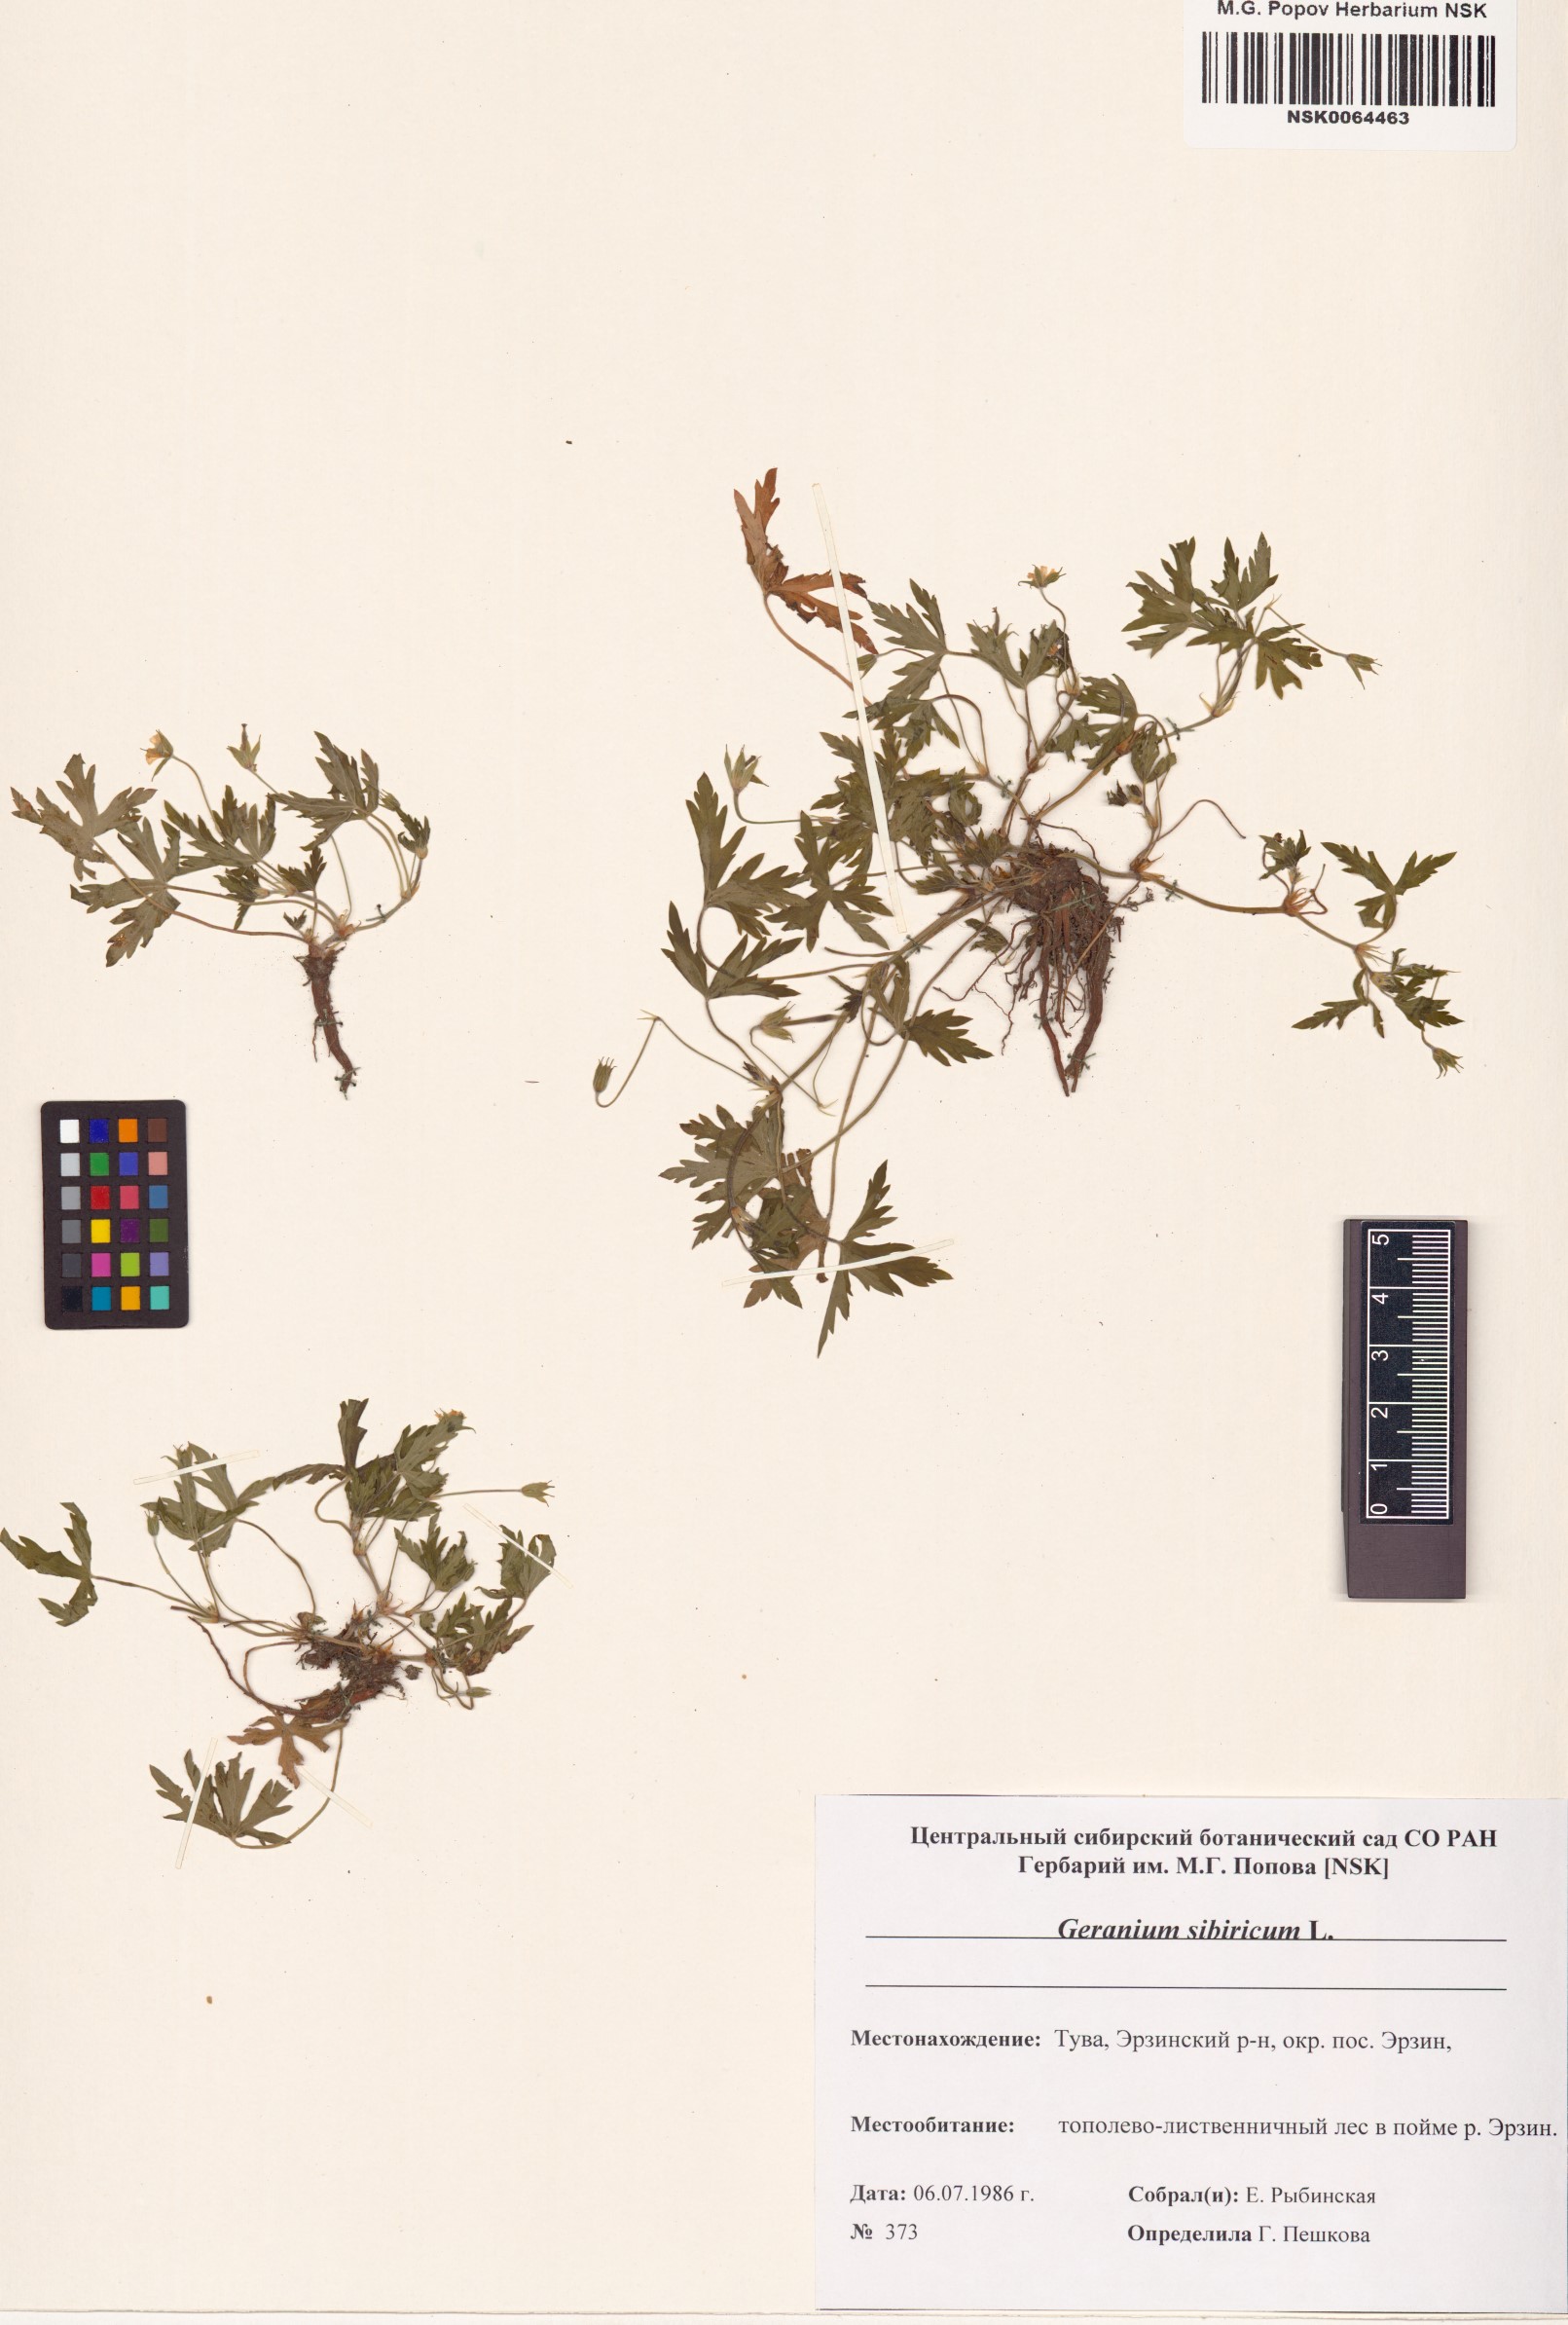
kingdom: Plantae
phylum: Tracheophyta
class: Magnoliopsida
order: Geraniales
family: Geraniaceae
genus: Geranium
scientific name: Geranium sibiricum
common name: Siberian crane's-bill
